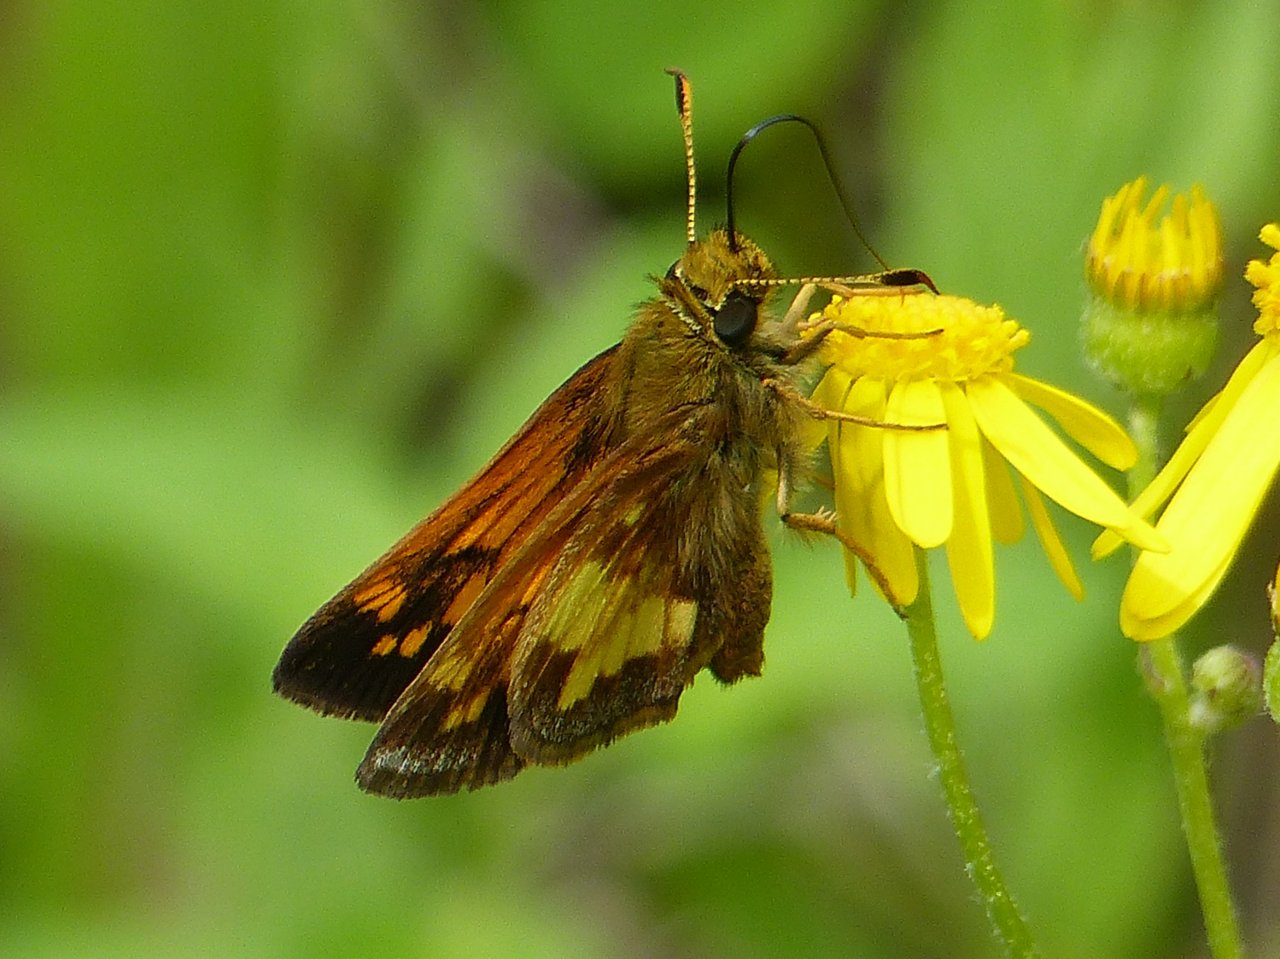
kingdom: Animalia
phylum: Arthropoda
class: Insecta
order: Lepidoptera
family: Hesperiidae
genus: Polites
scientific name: Polites coras
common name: Peck's Skipper
